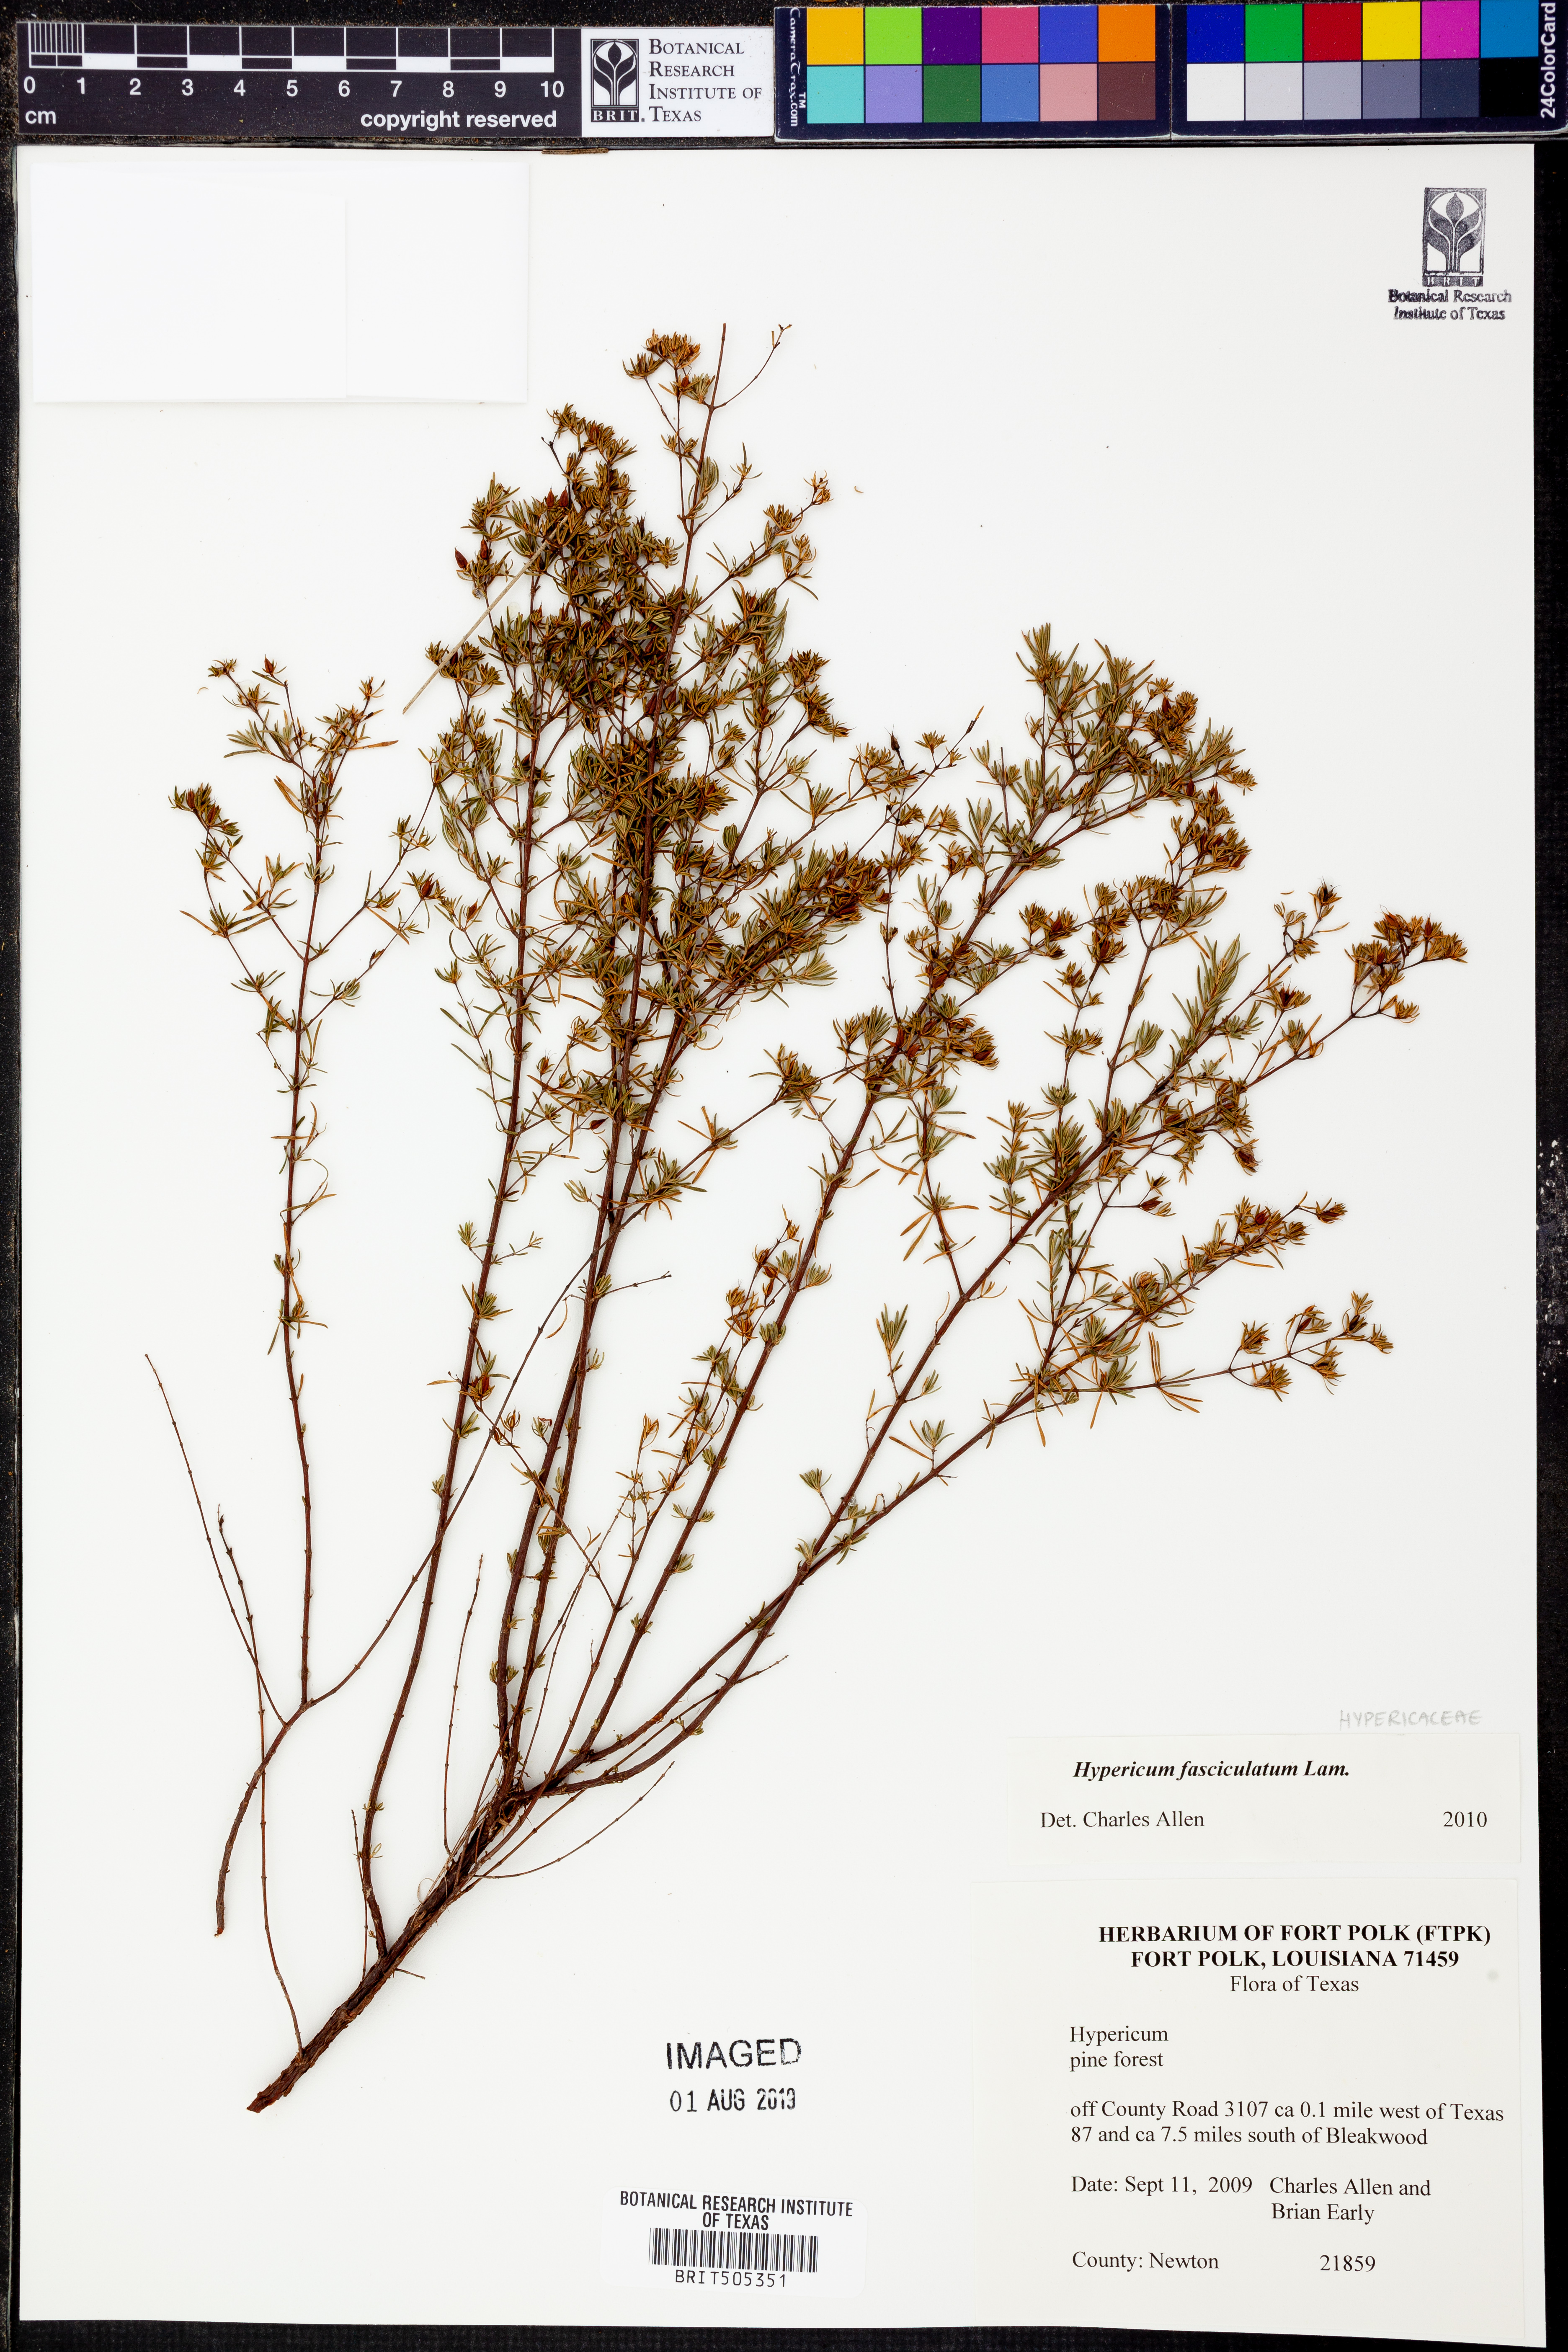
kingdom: Plantae
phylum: Tracheophyta
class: Magnoliopsida
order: Malpighiales
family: Hypericaceae
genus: Hypericum
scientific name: Hypericum fasciculatum
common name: Peelbark st. john's wort
